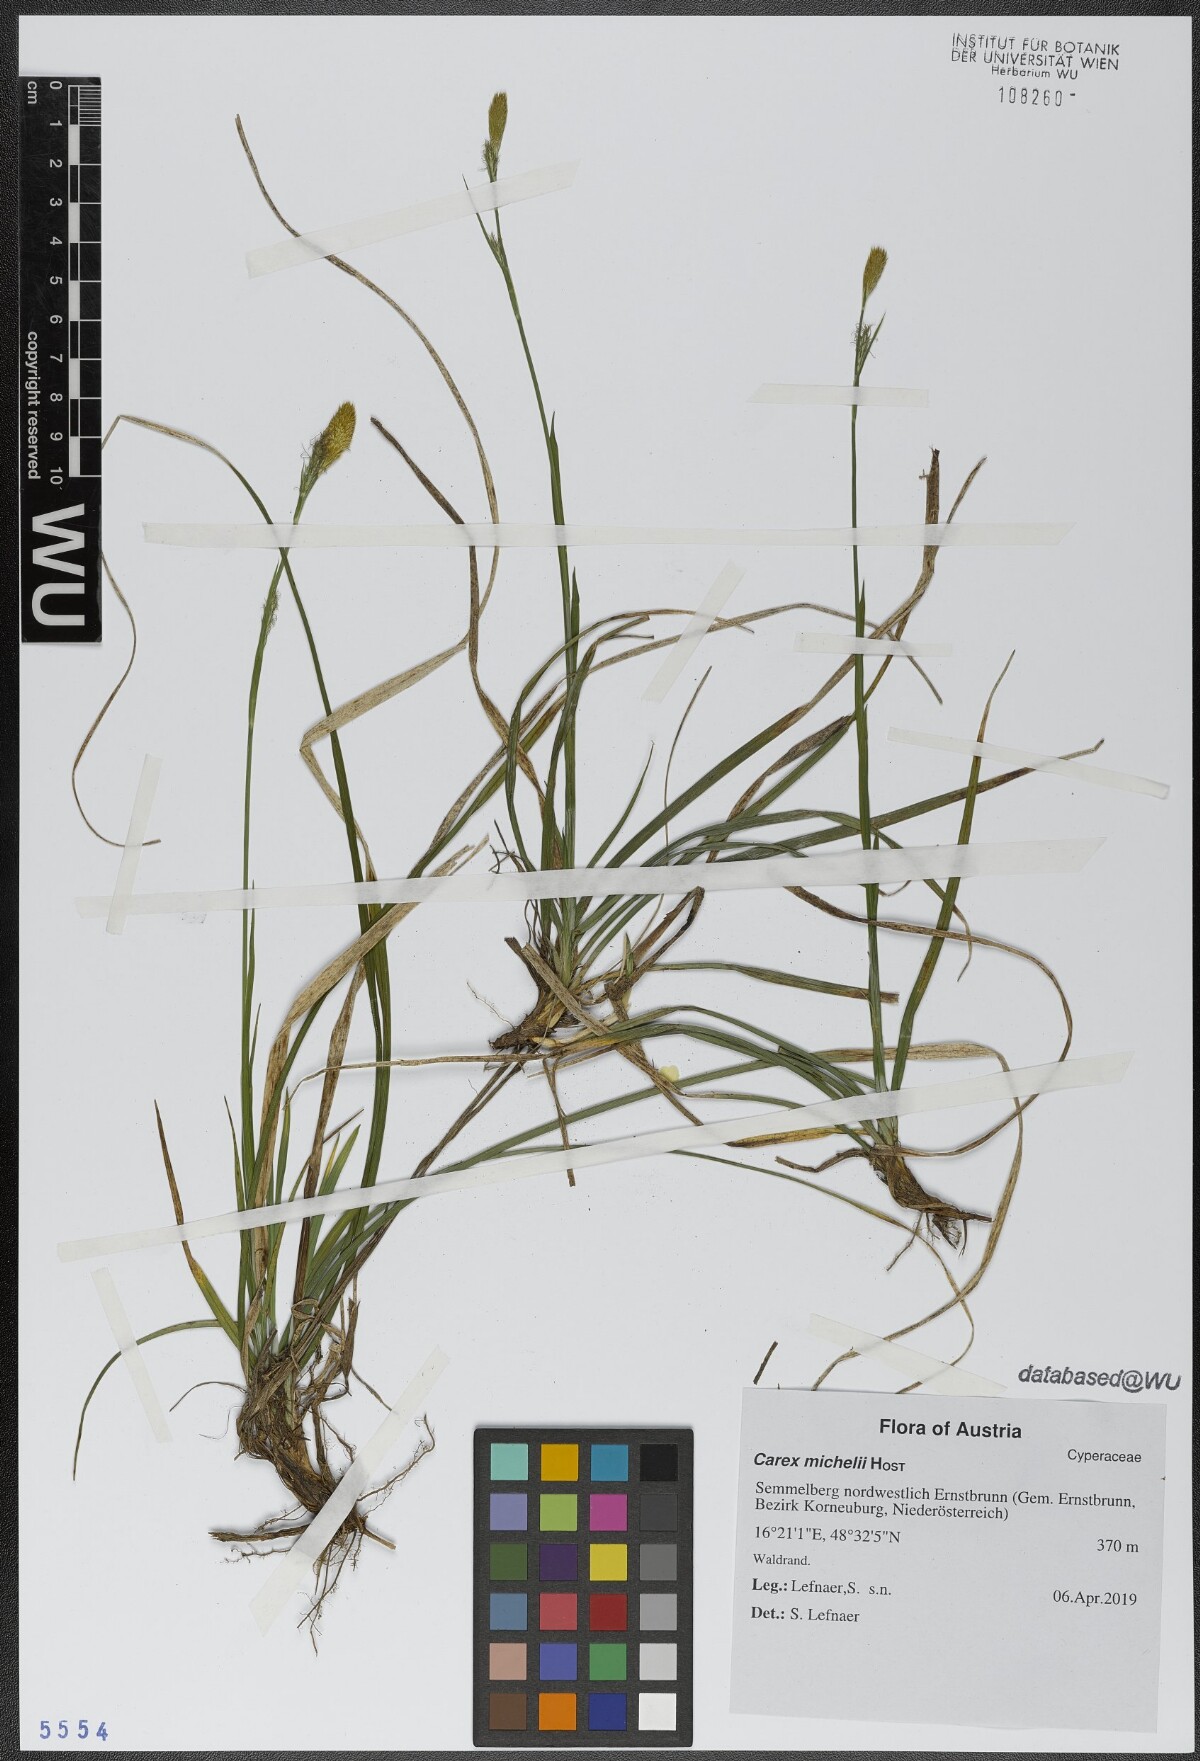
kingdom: Plantae
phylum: Tracheophyta
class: Liliopsida
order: Poales
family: Cyperaceae
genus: Carex
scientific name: Carex michelii
